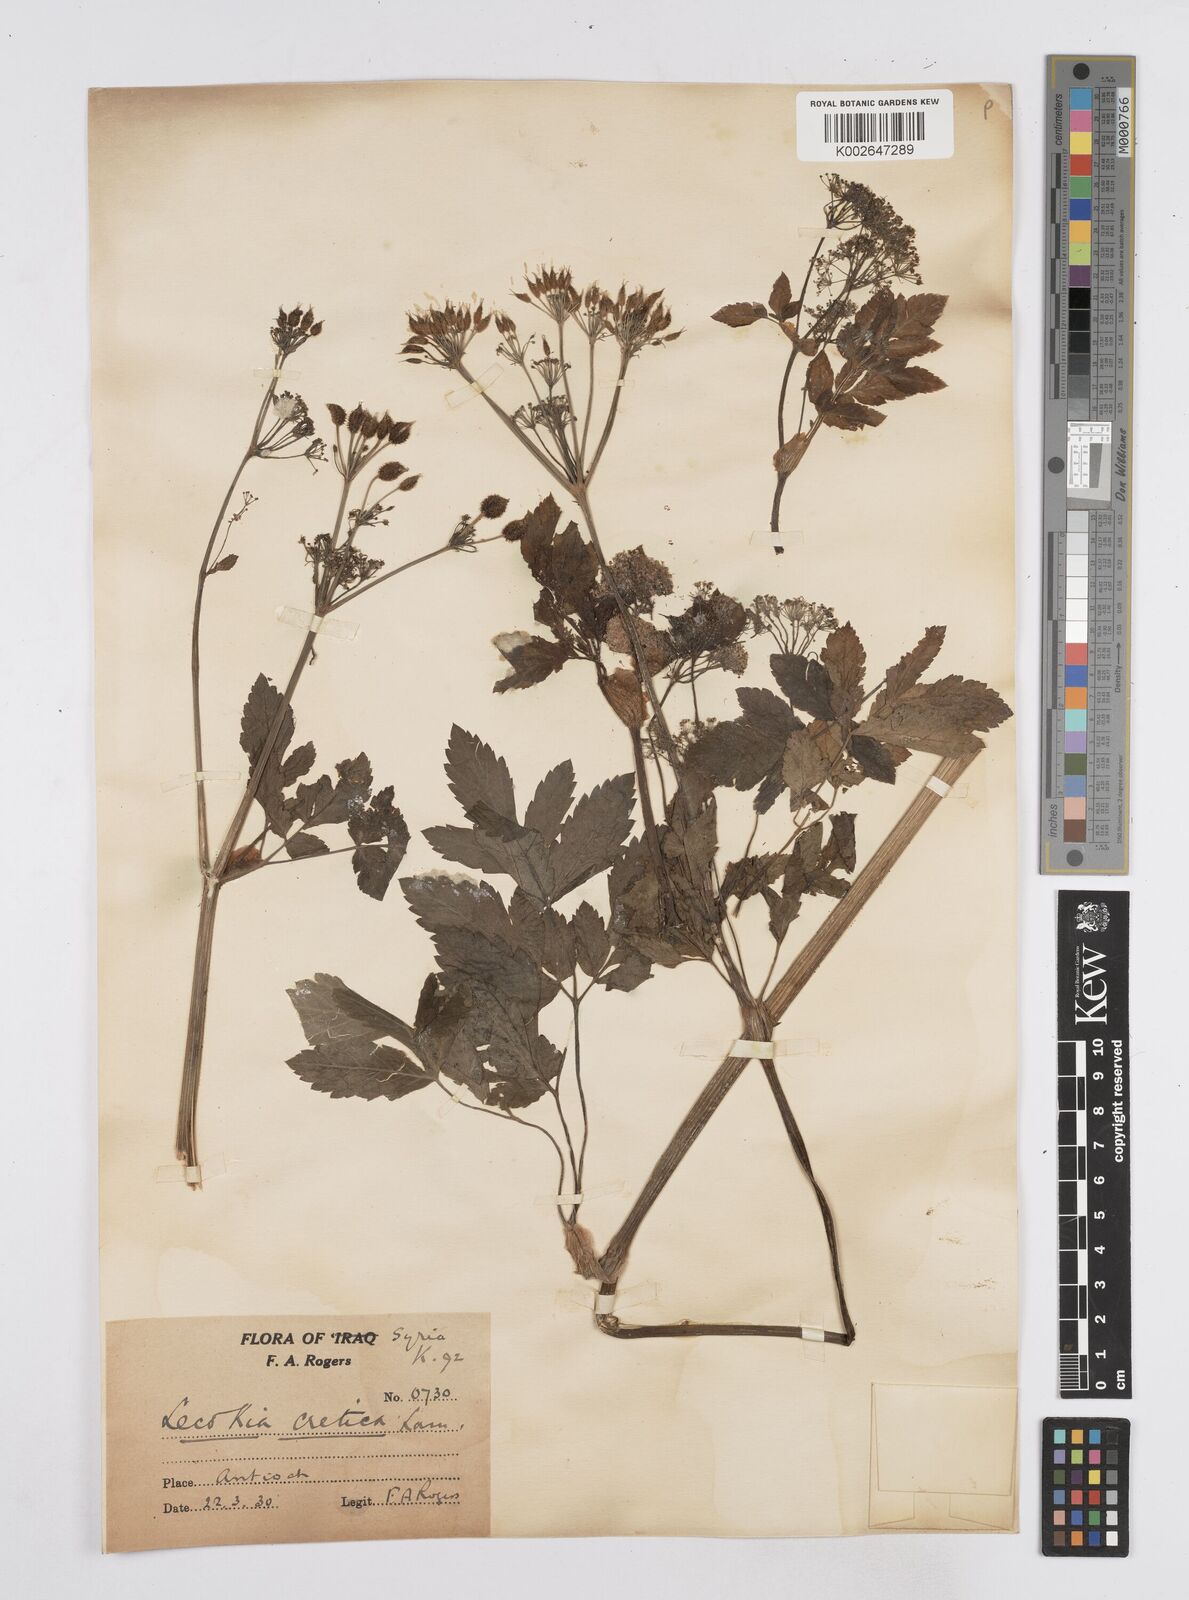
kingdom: Plantae
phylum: Tracheophyta
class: Magnoliopsida
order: Apiales
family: Apiaceae
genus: Lecokia
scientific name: Lecokia cretica
